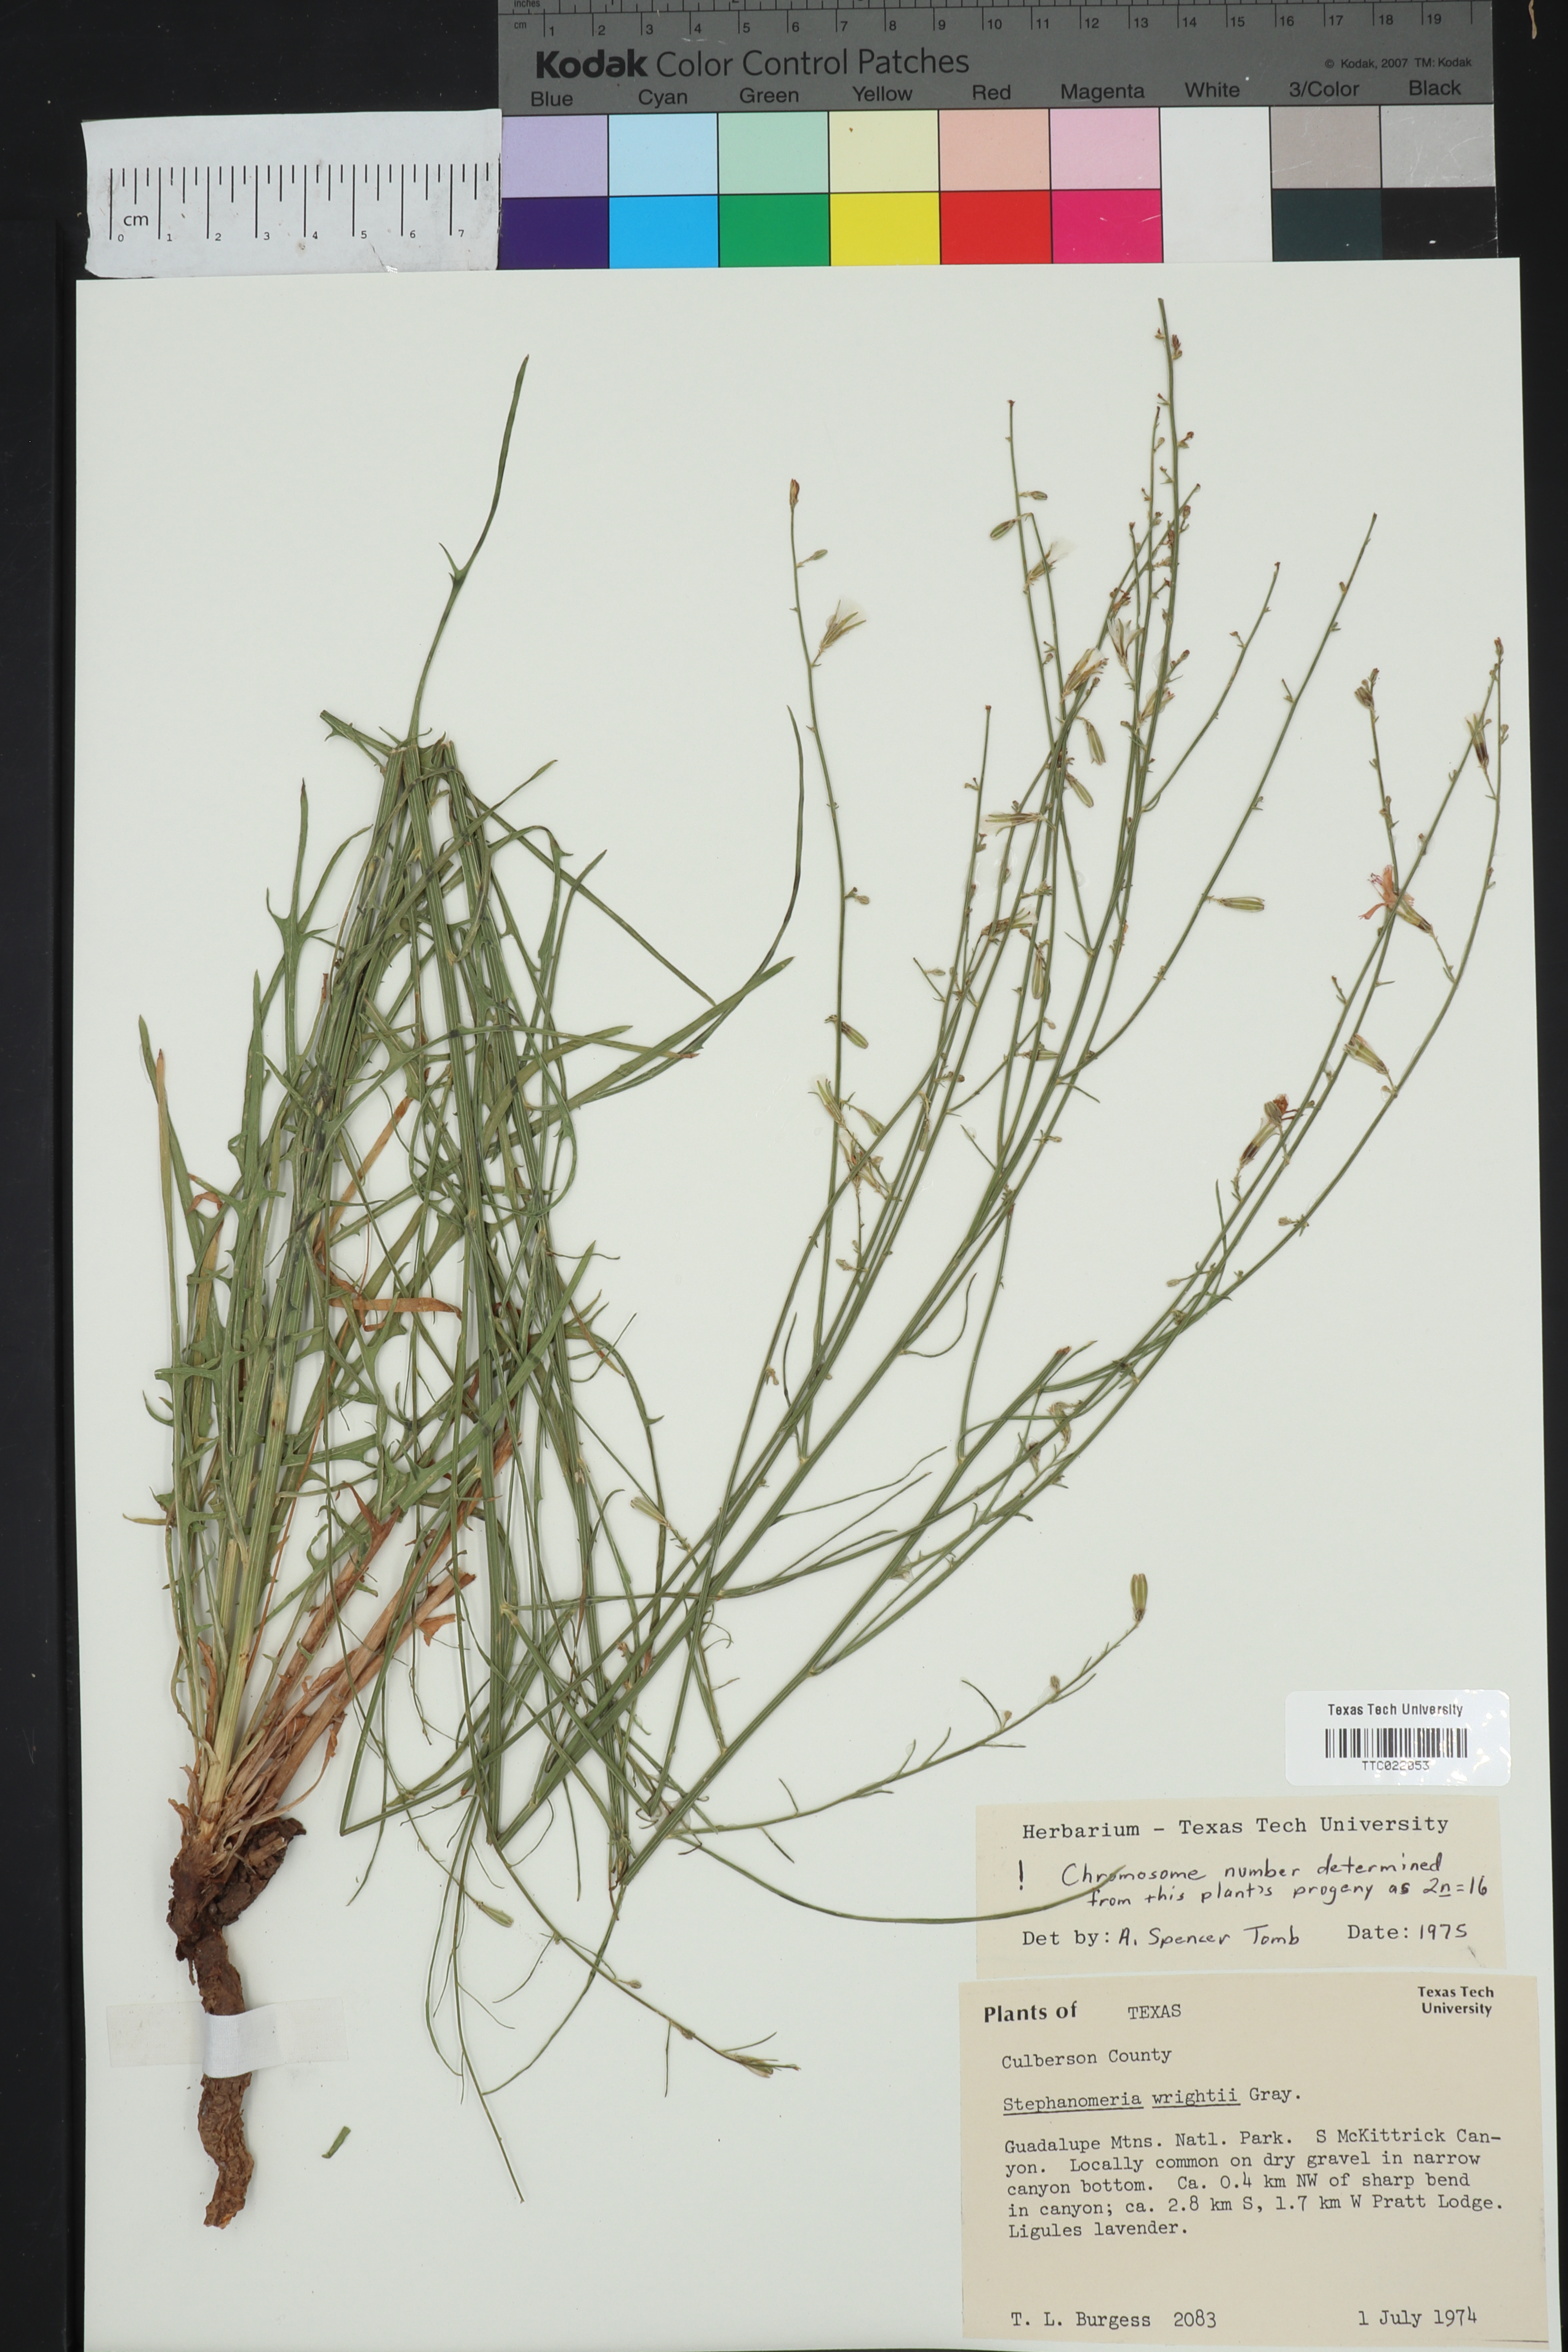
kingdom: Plantae
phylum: Tracheophyta
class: Magnoliopsida
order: Asterales
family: Asteraceae
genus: Stephanomeria
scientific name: Stephanomeria tenuifolia
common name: Slender wirelettuce
